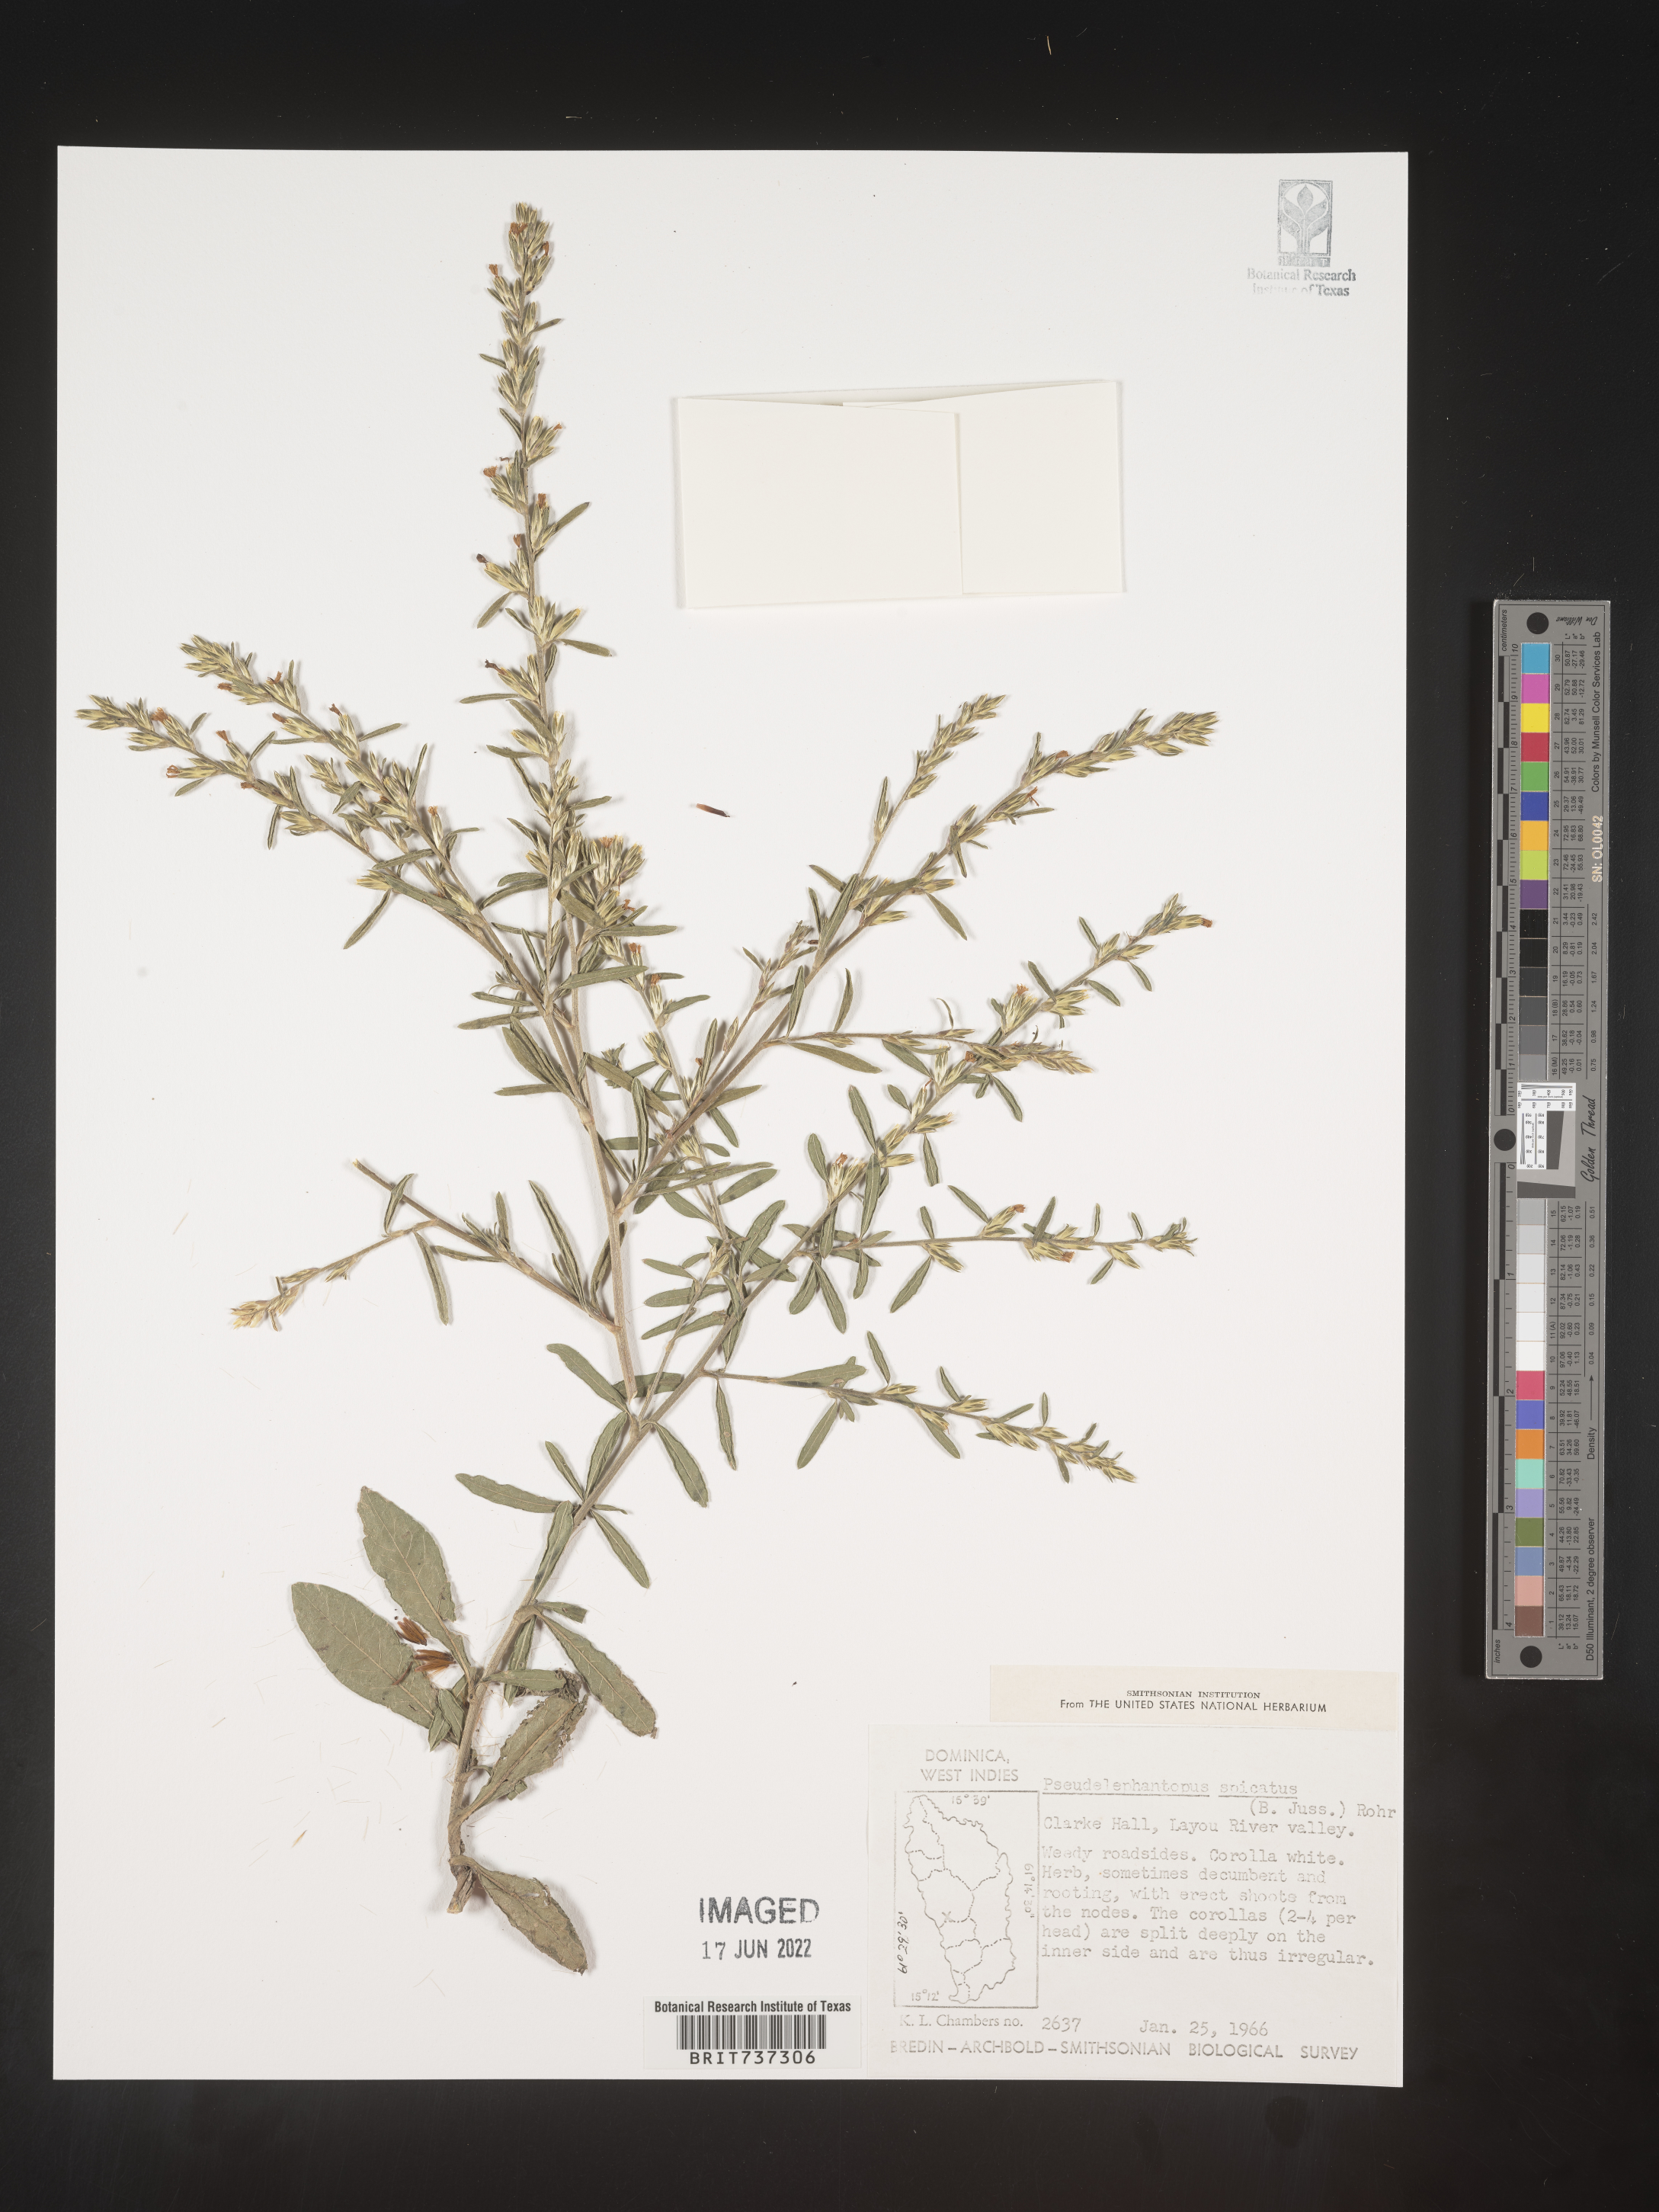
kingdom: Plantae
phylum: Tracheophyta
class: Magnoliopsida
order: Asterales
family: Asteraceae
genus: Pseudelephantopus
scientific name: Pseudelephantopus
